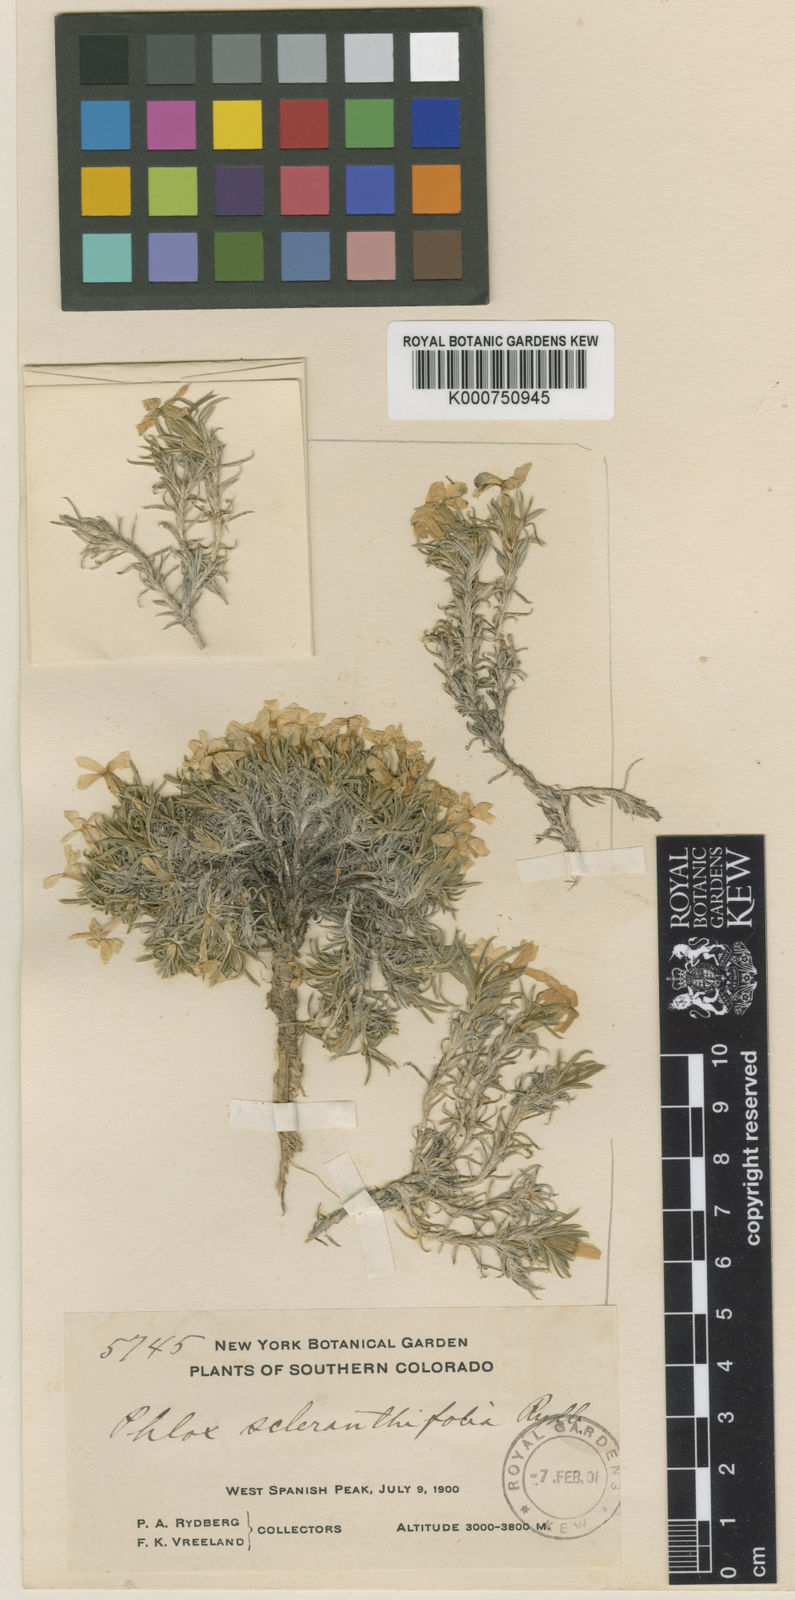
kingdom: Plantae
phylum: Tracheophyta
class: Magnoliopsida
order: Ericales
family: Polemoniaceae
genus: Phlox
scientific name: Phlox douglasii
